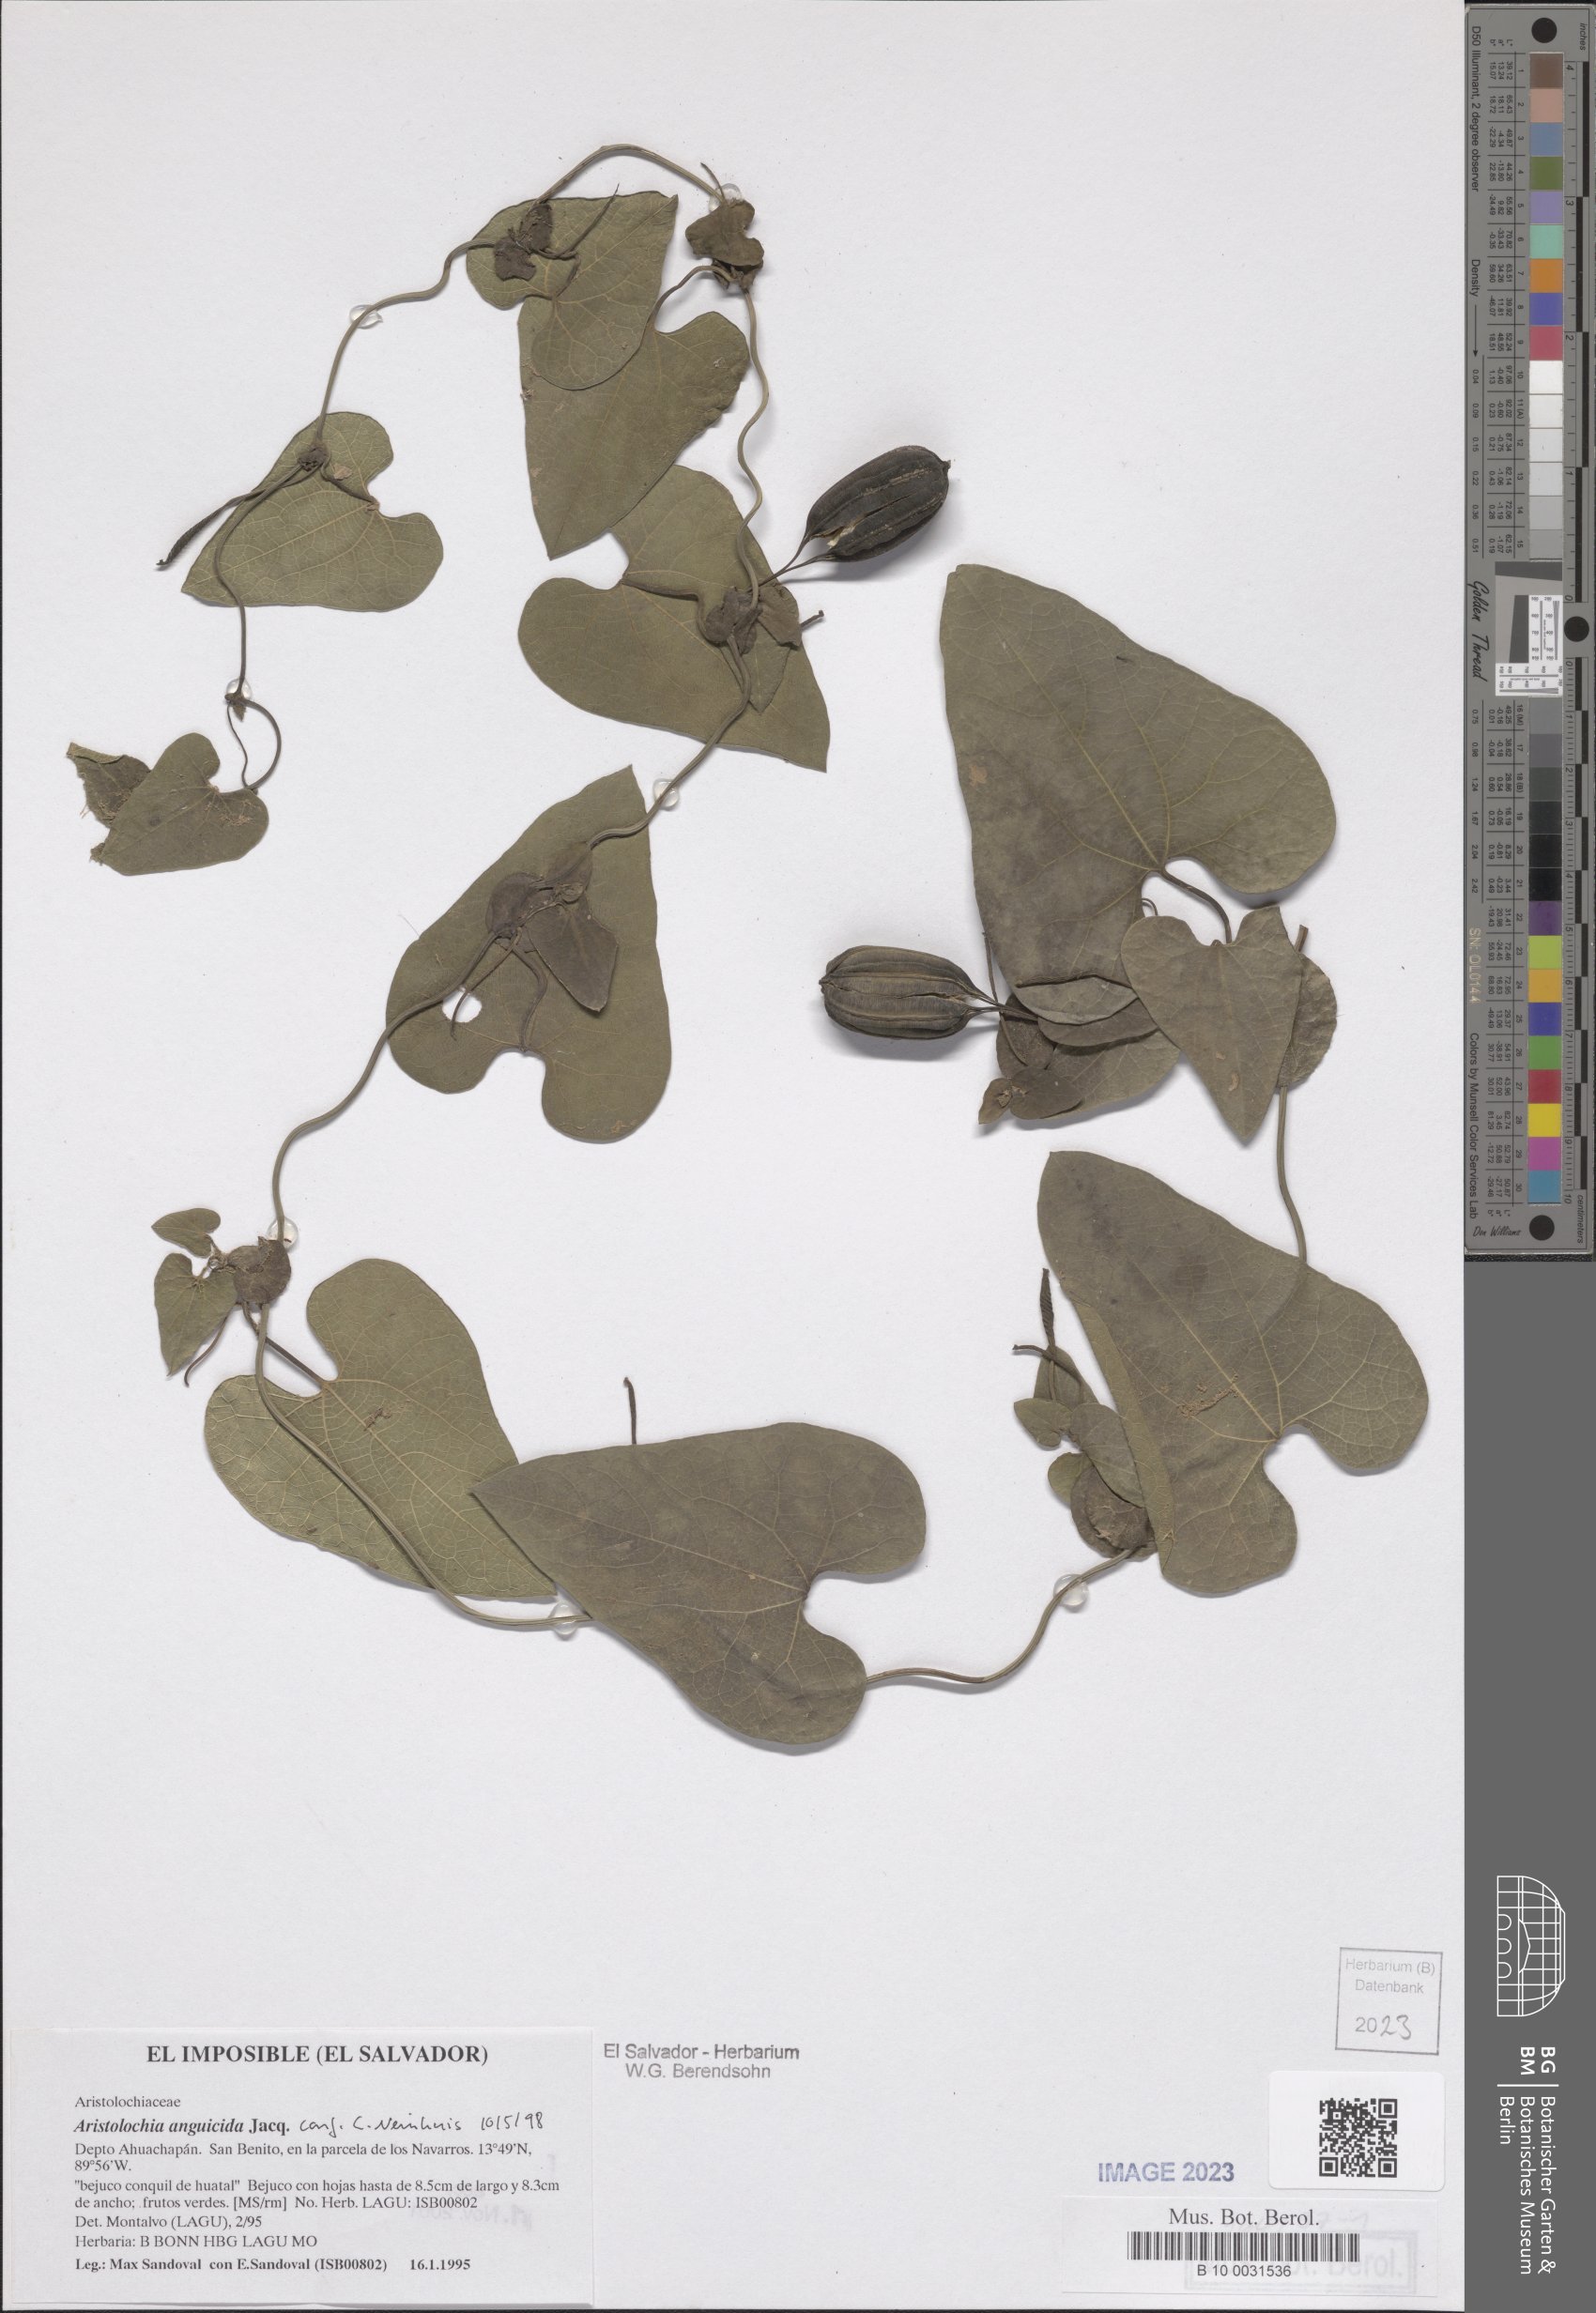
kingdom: Plantae
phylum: Tracheophyta
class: Magnoliopsida
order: Piperales
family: Aristolochiaceae
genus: Aristolochia
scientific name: Aristolochia anguicida
